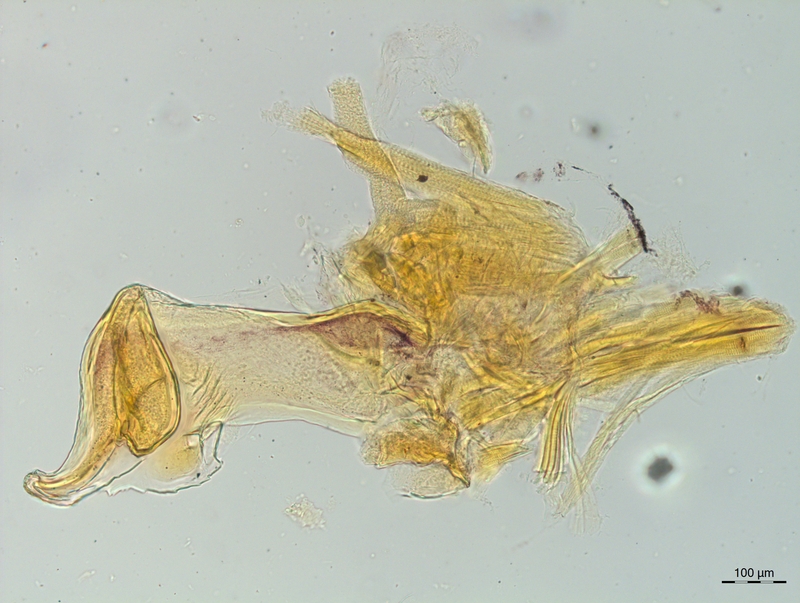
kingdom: Animalia
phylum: Arthropoda
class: Diplopoda
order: Chordeumatida
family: Craspedosomatidae
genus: Craspedosoma
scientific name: Craspedosoma rawlinsii
